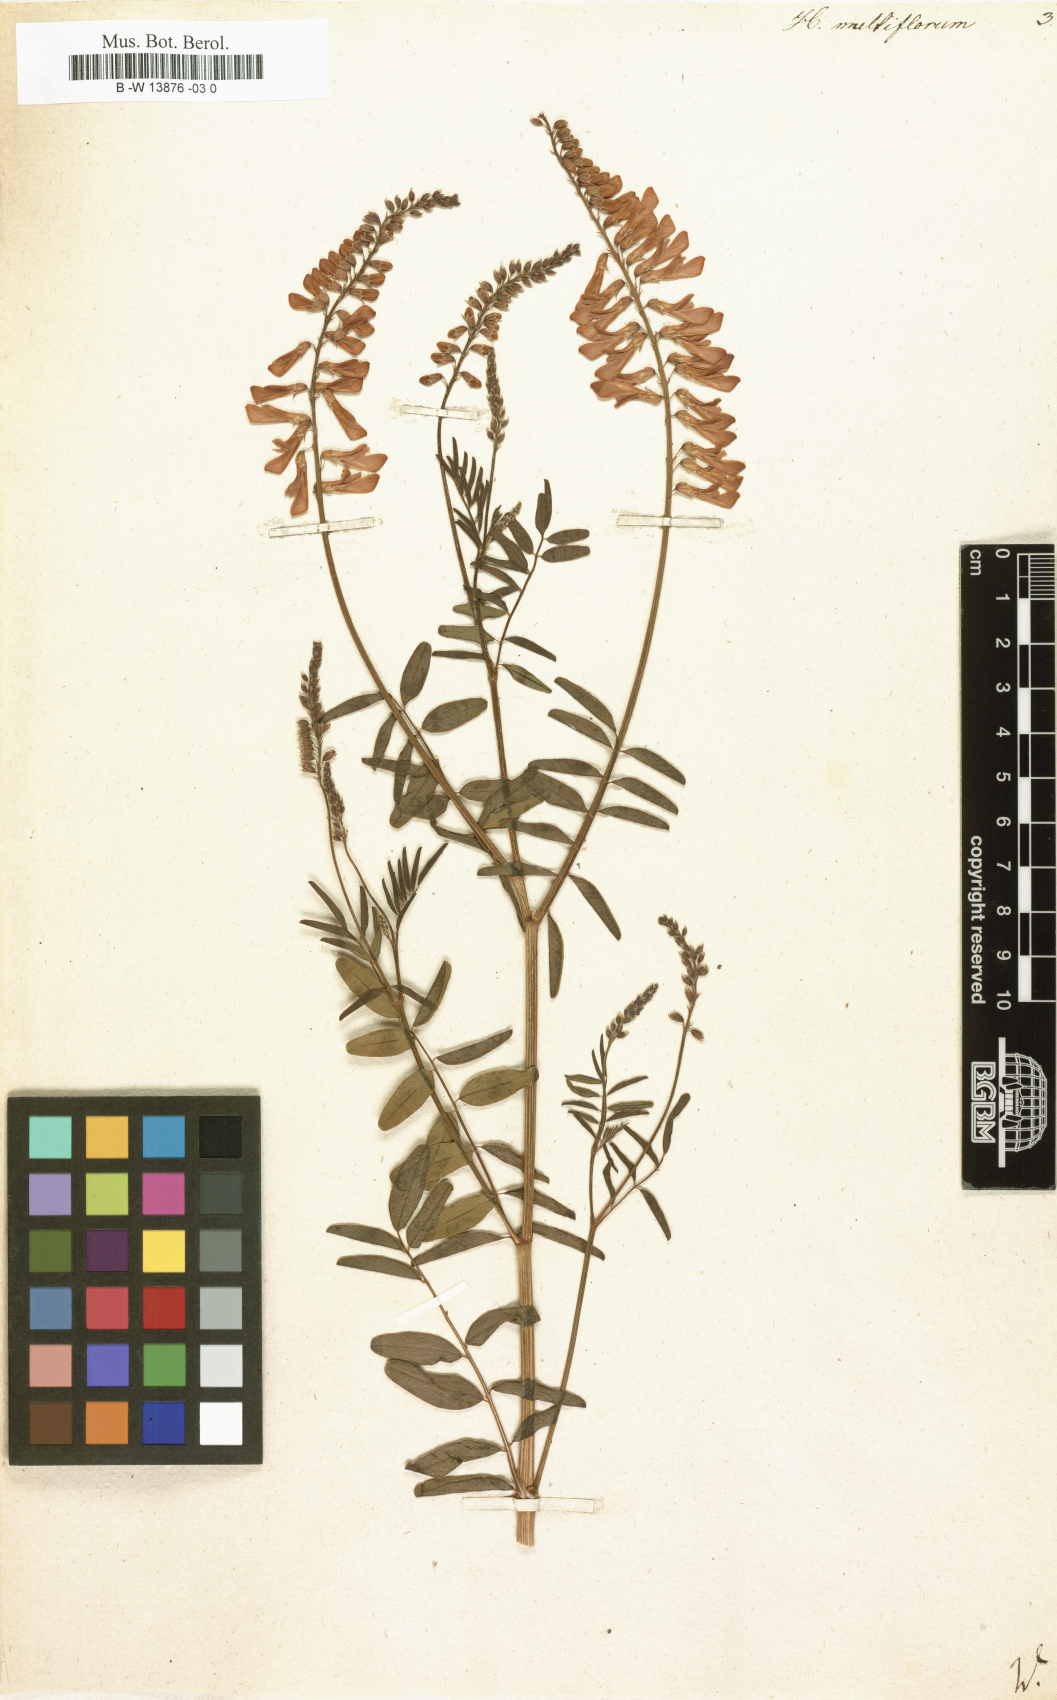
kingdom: Plantae
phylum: Tracheophyta
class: Magnoliopsida
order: Fabales
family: Fabaceae
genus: Desmodium
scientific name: Desmodium cajanifolium
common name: Tropical ticktrefoil
